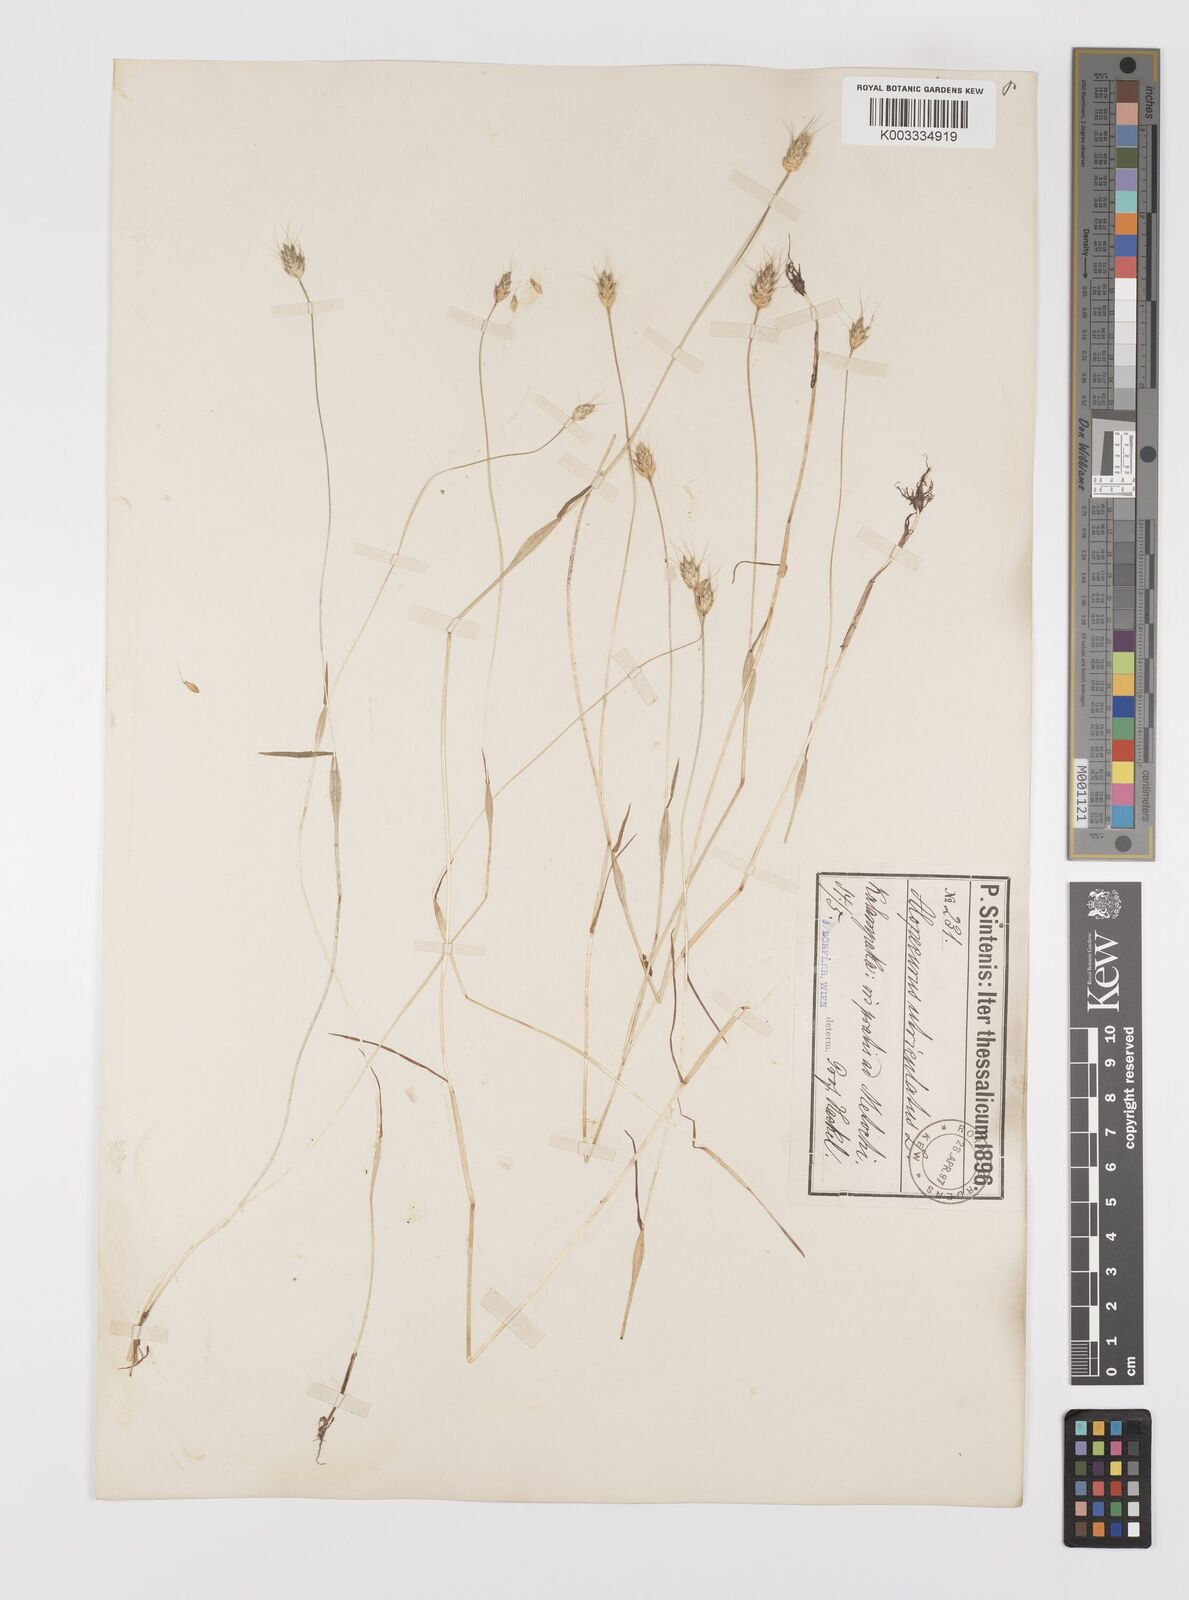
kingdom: Plantae
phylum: Tracheophyta
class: Liliopsida
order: Poales
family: Poaceae
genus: Alopecurus
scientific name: Alopecurus rendlei
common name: Rendle's meadow foxtail
